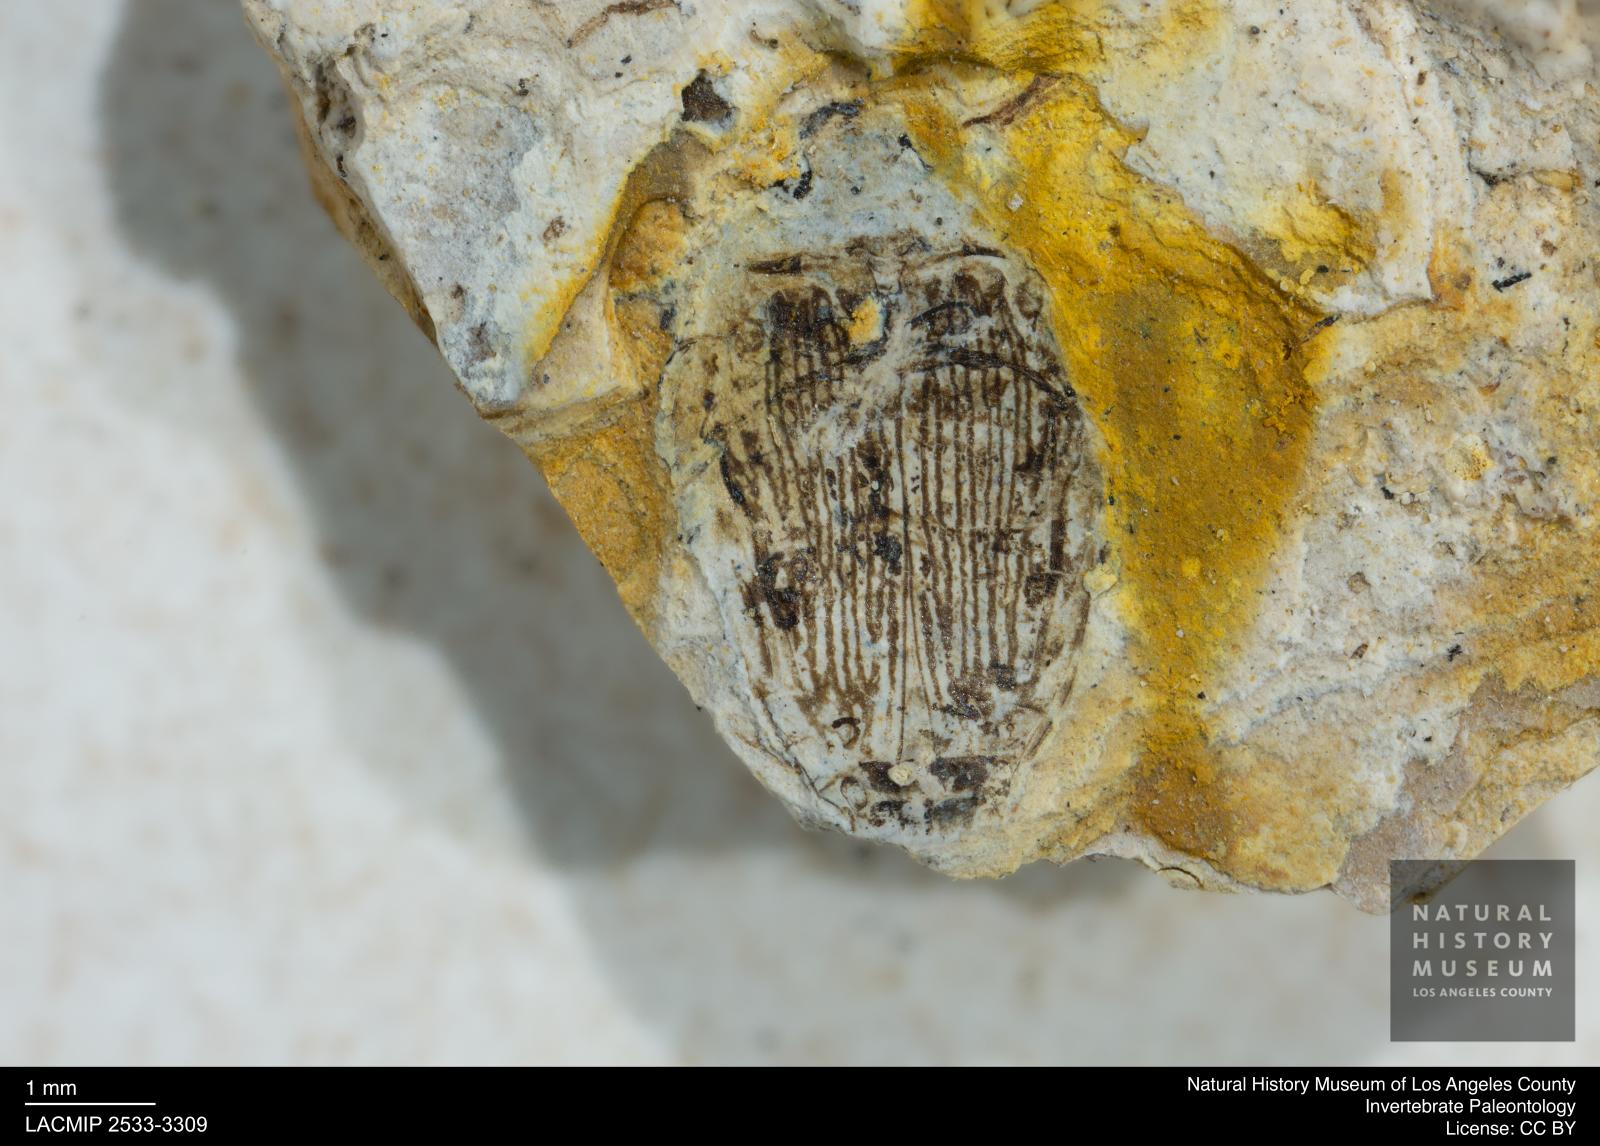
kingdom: Animalia
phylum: Arthropoda
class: Insecta
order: Coleoptera
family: Dytiscidae
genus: Laccophilus
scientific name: Laccophilus Palaeogyrinus strigatus
